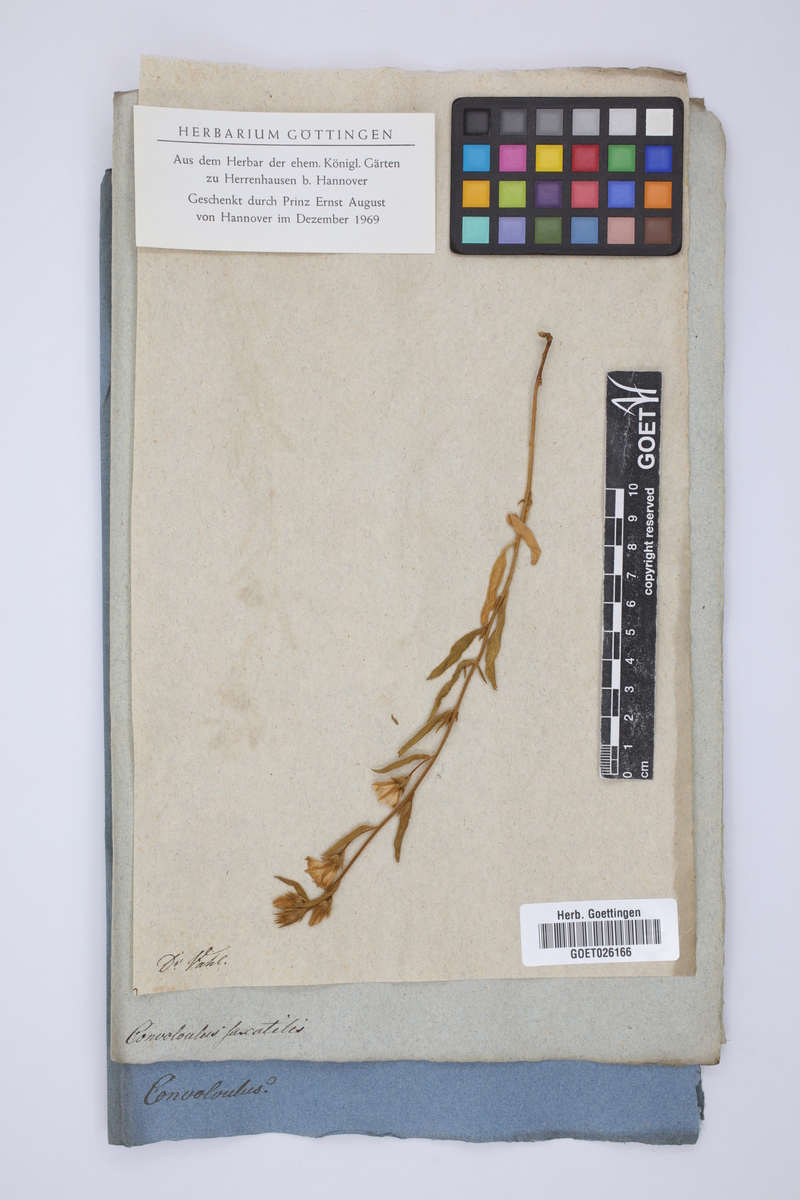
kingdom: Plantae
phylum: Tracheophyta
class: Magnoliopsida
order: Solanales
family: Convolvulaceae
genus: Convolvulus
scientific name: Convolvulus lanuginosus
